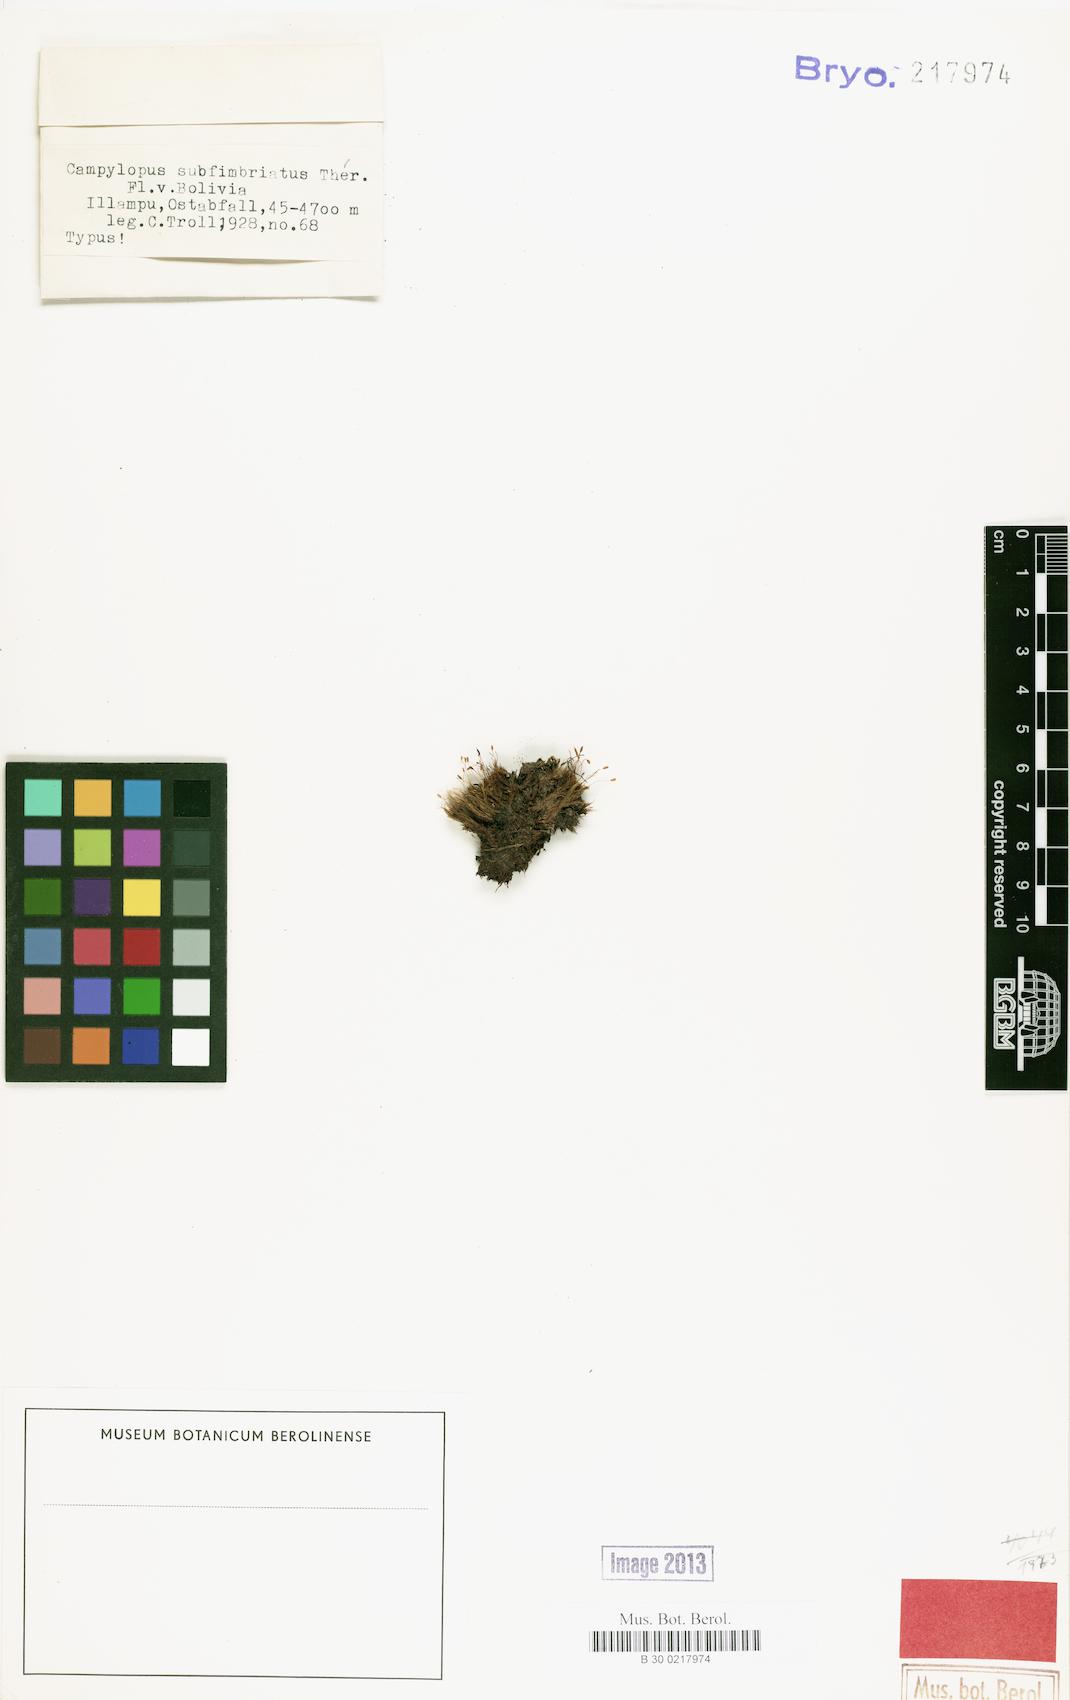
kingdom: Plantae
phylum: Bryophyta
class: Bryopsida
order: Dicranales
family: Leucobryaceae
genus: Campylopus
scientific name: Campylopus nivalis
